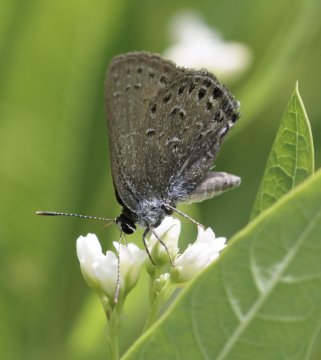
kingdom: Animalia
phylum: Arthropoda
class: Insecta
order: Lepidoptera
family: Lycaenidae
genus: Satyrium
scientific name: Satyrium behrii
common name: Behr's Hairstreak
